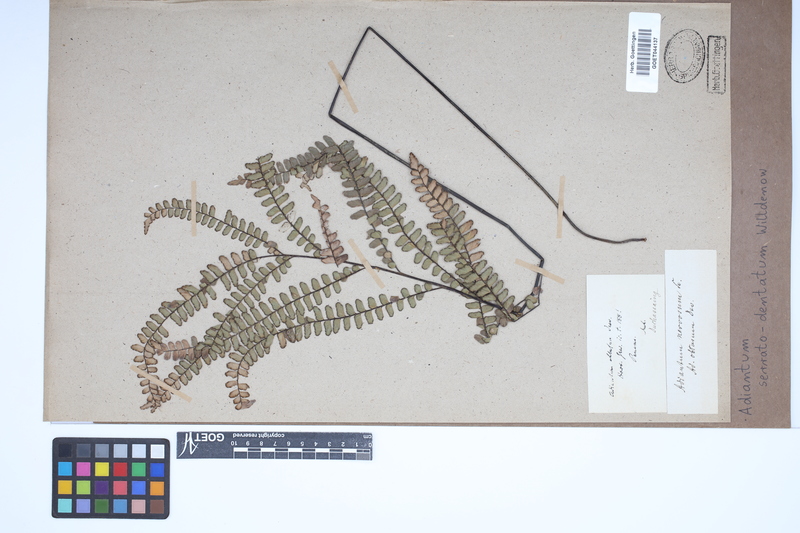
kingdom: Plantae
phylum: Tracheophyta
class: Polypodiopsida
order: Polypodiales
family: Pteridaceae
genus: Adiantum
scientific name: Adiantum serratodentatum
